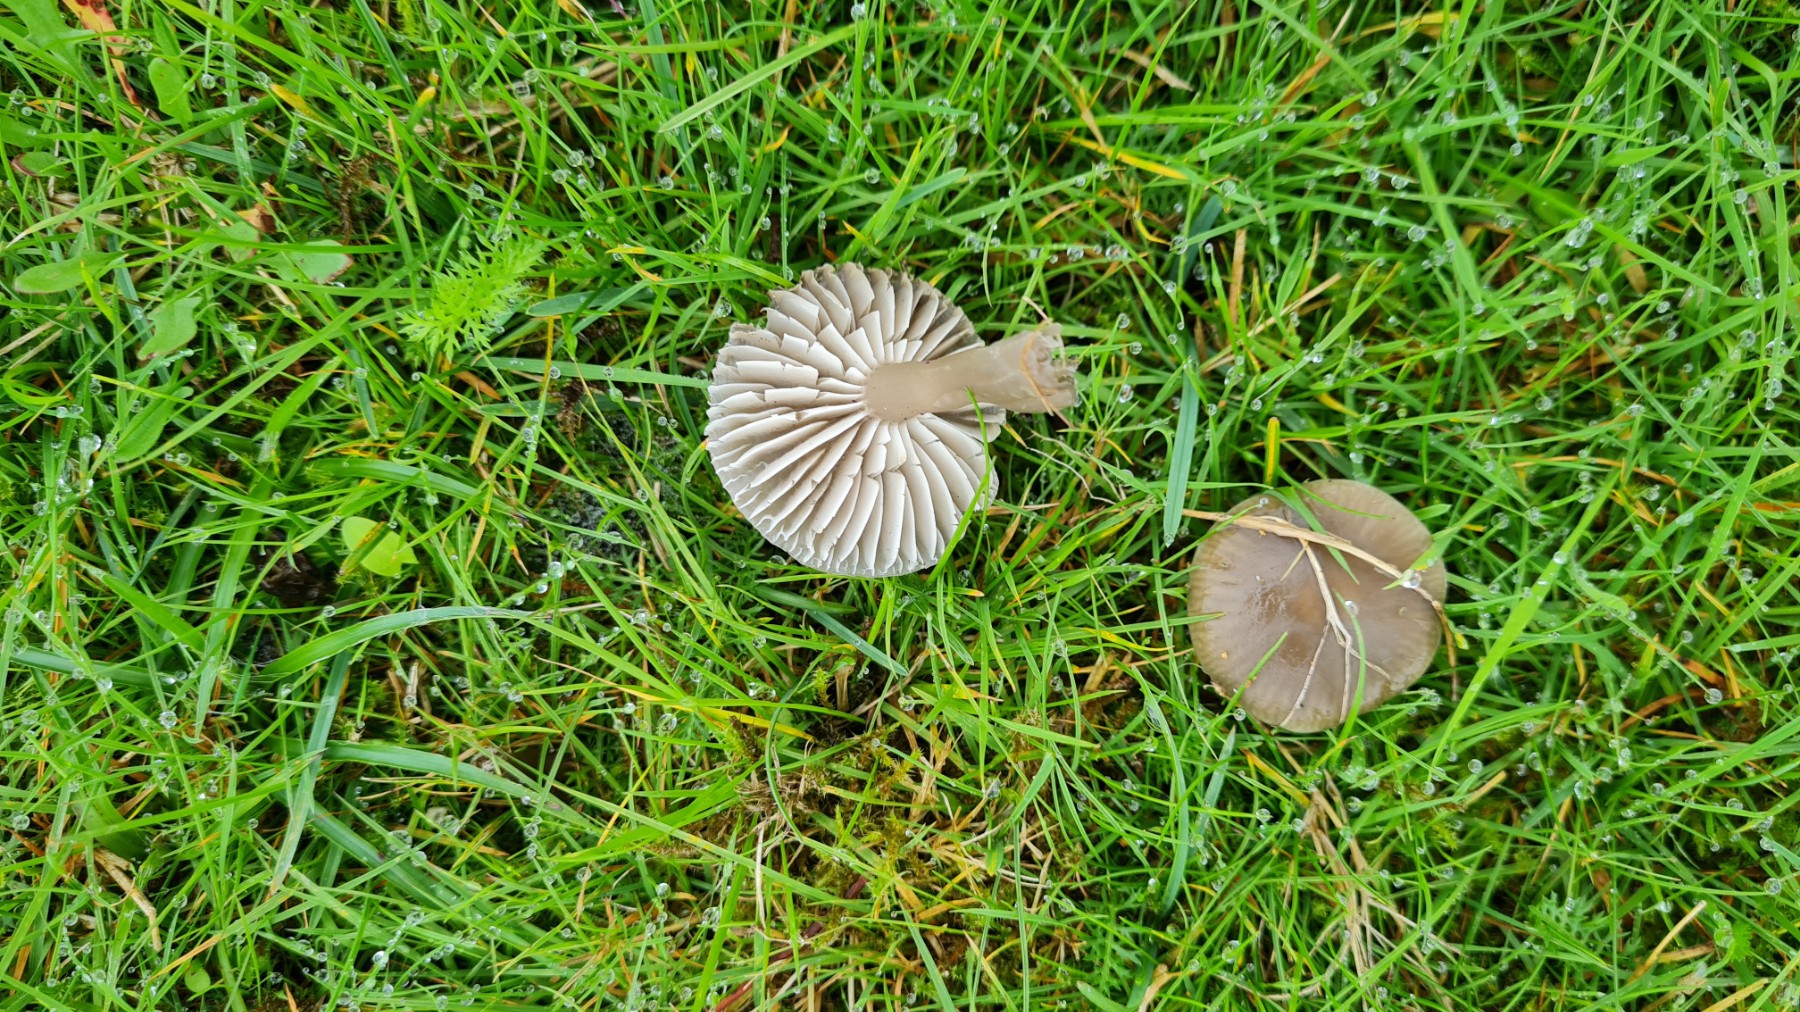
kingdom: Fungi
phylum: Basidiomycota
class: Agaricomycetes
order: Agaricales
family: Hygrophoraceae
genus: Gliophorus
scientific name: Gliophorus irrigatus
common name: slimet vokshat
